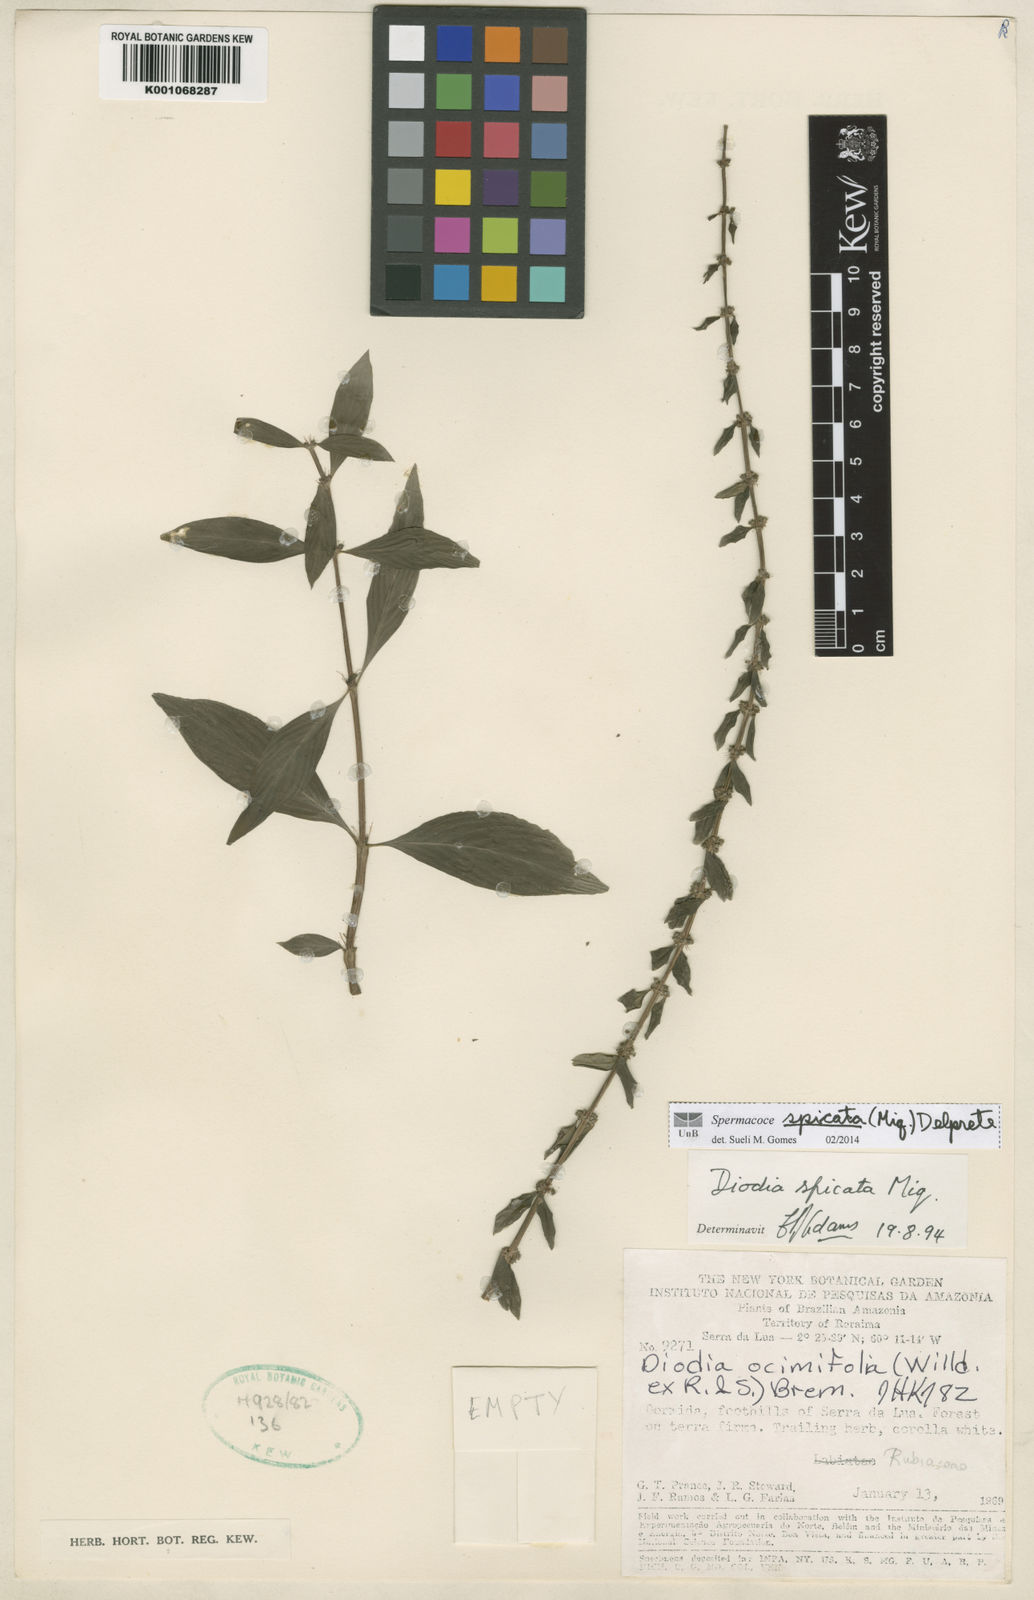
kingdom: Plantae
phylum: Tracheophyta
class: Magnoliopsida
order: Gentianales
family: Rubiaceae
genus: Galianthe
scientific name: Galianthe spicata
